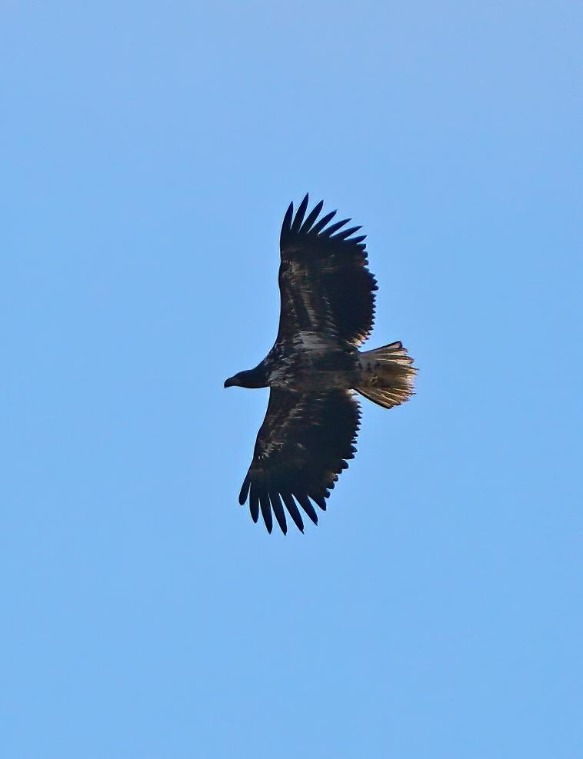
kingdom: Animalia
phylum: Chordata
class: Aves
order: Accipitriformes
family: Accipitridae
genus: Haliaeetus
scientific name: Haliaeetus albicilla
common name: Havørn
